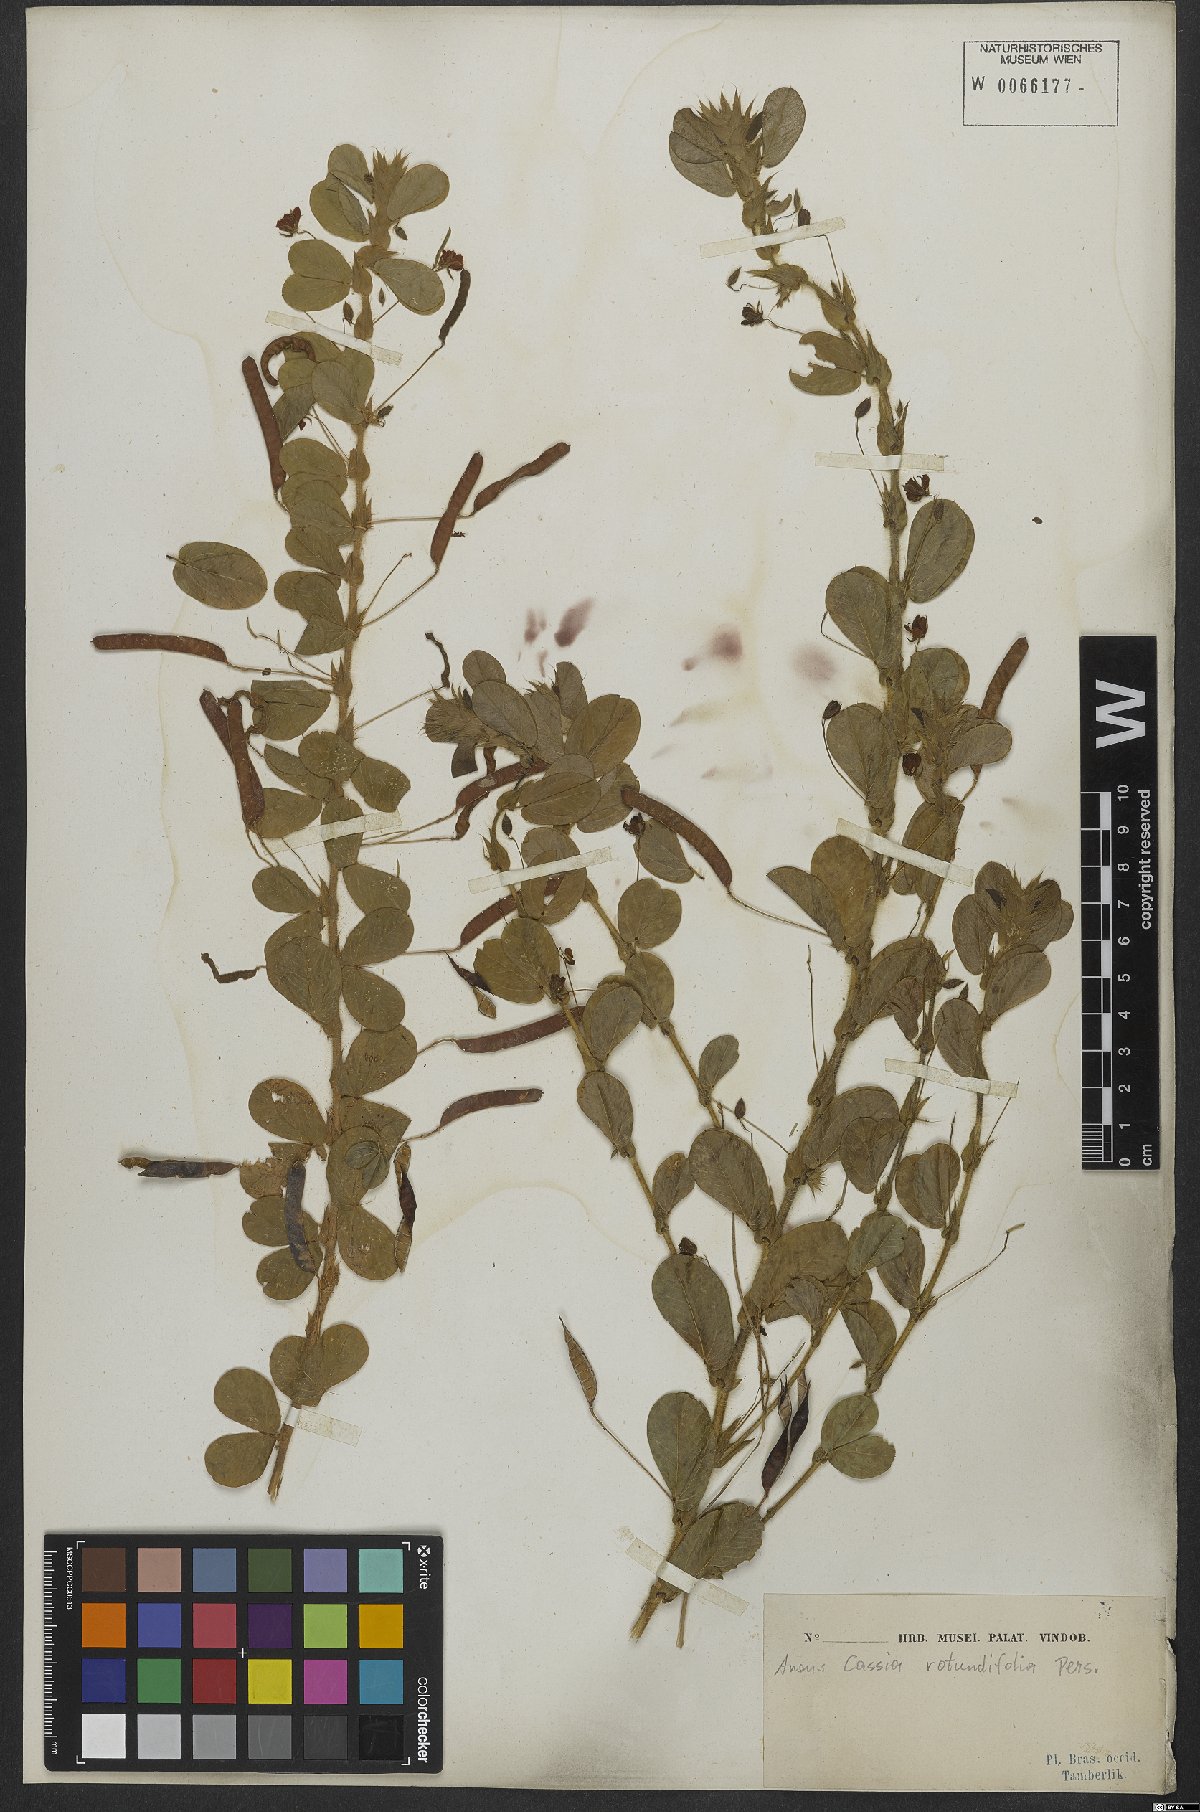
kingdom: Plantae
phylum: Tracheophyta
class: Magnoliopsida
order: Fabales
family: Fabaceae
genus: Chamaecrista
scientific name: Chamaecrista rotundifolia
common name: Round-leaf cassia
